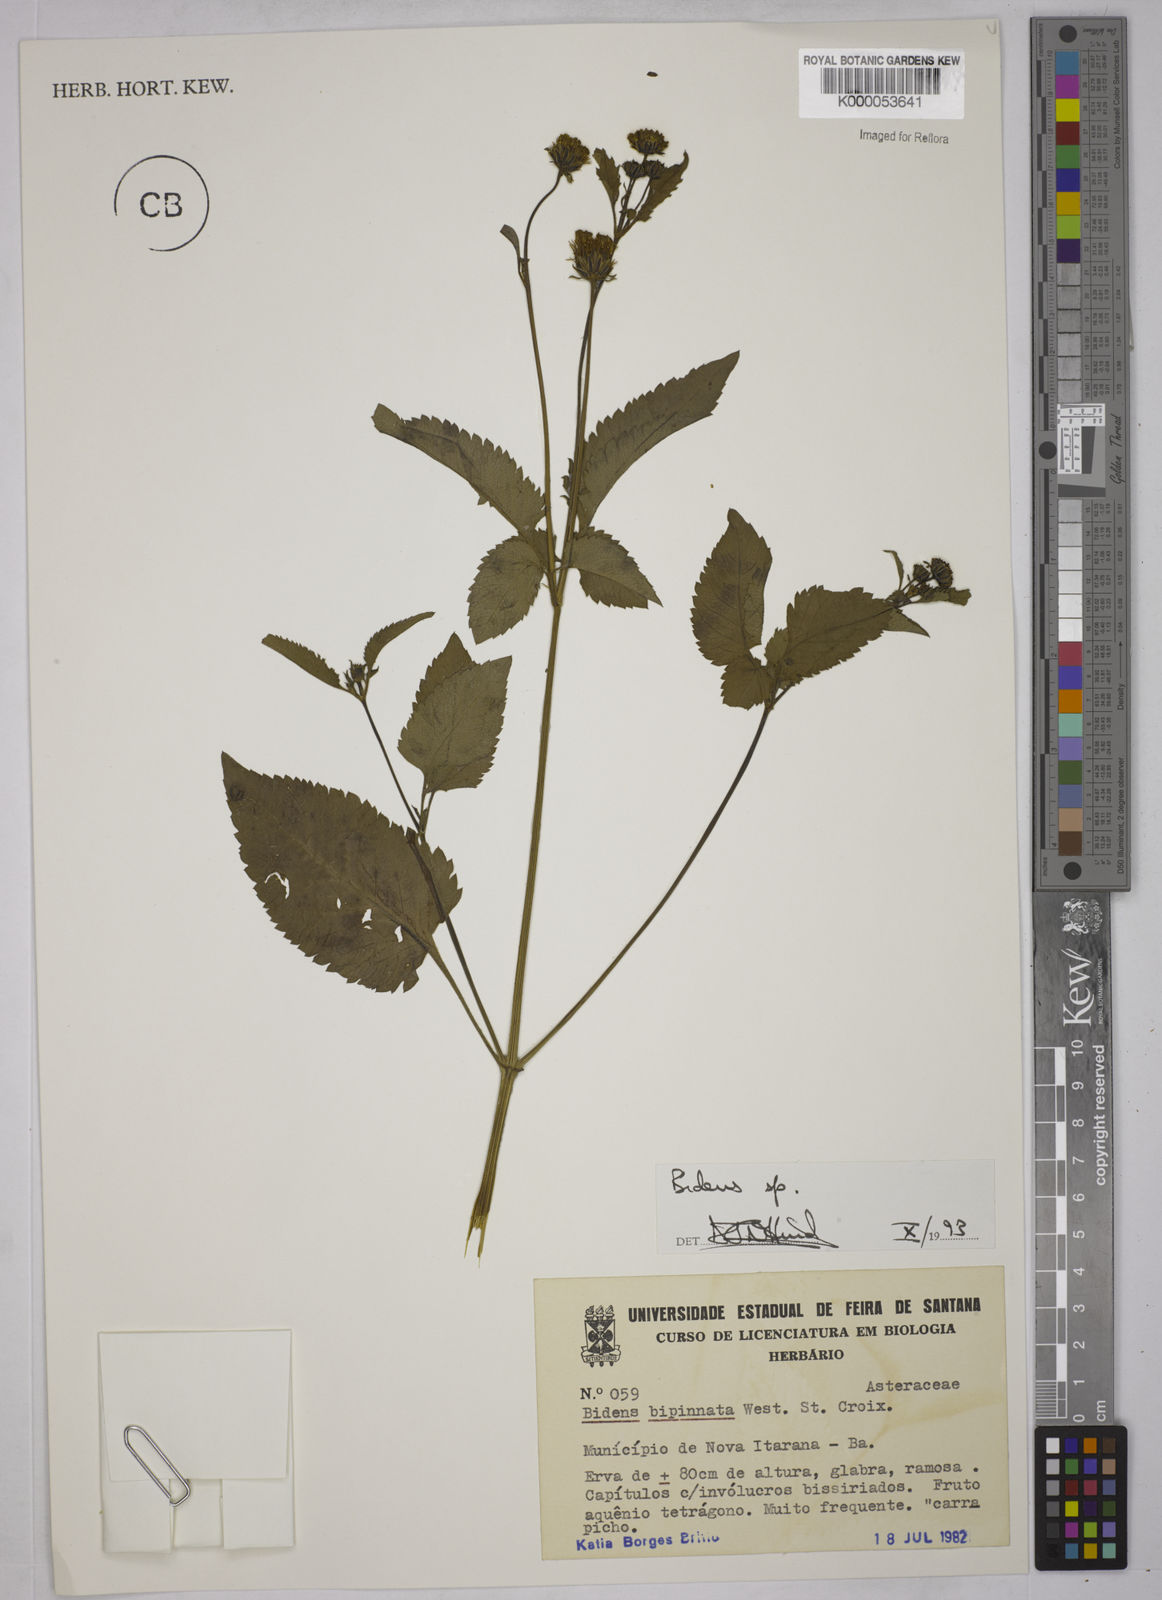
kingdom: Plantae
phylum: Tracheophyta
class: Magnoliopsida
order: Asterales
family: Asteraceae
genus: Bidens
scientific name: Bidens
